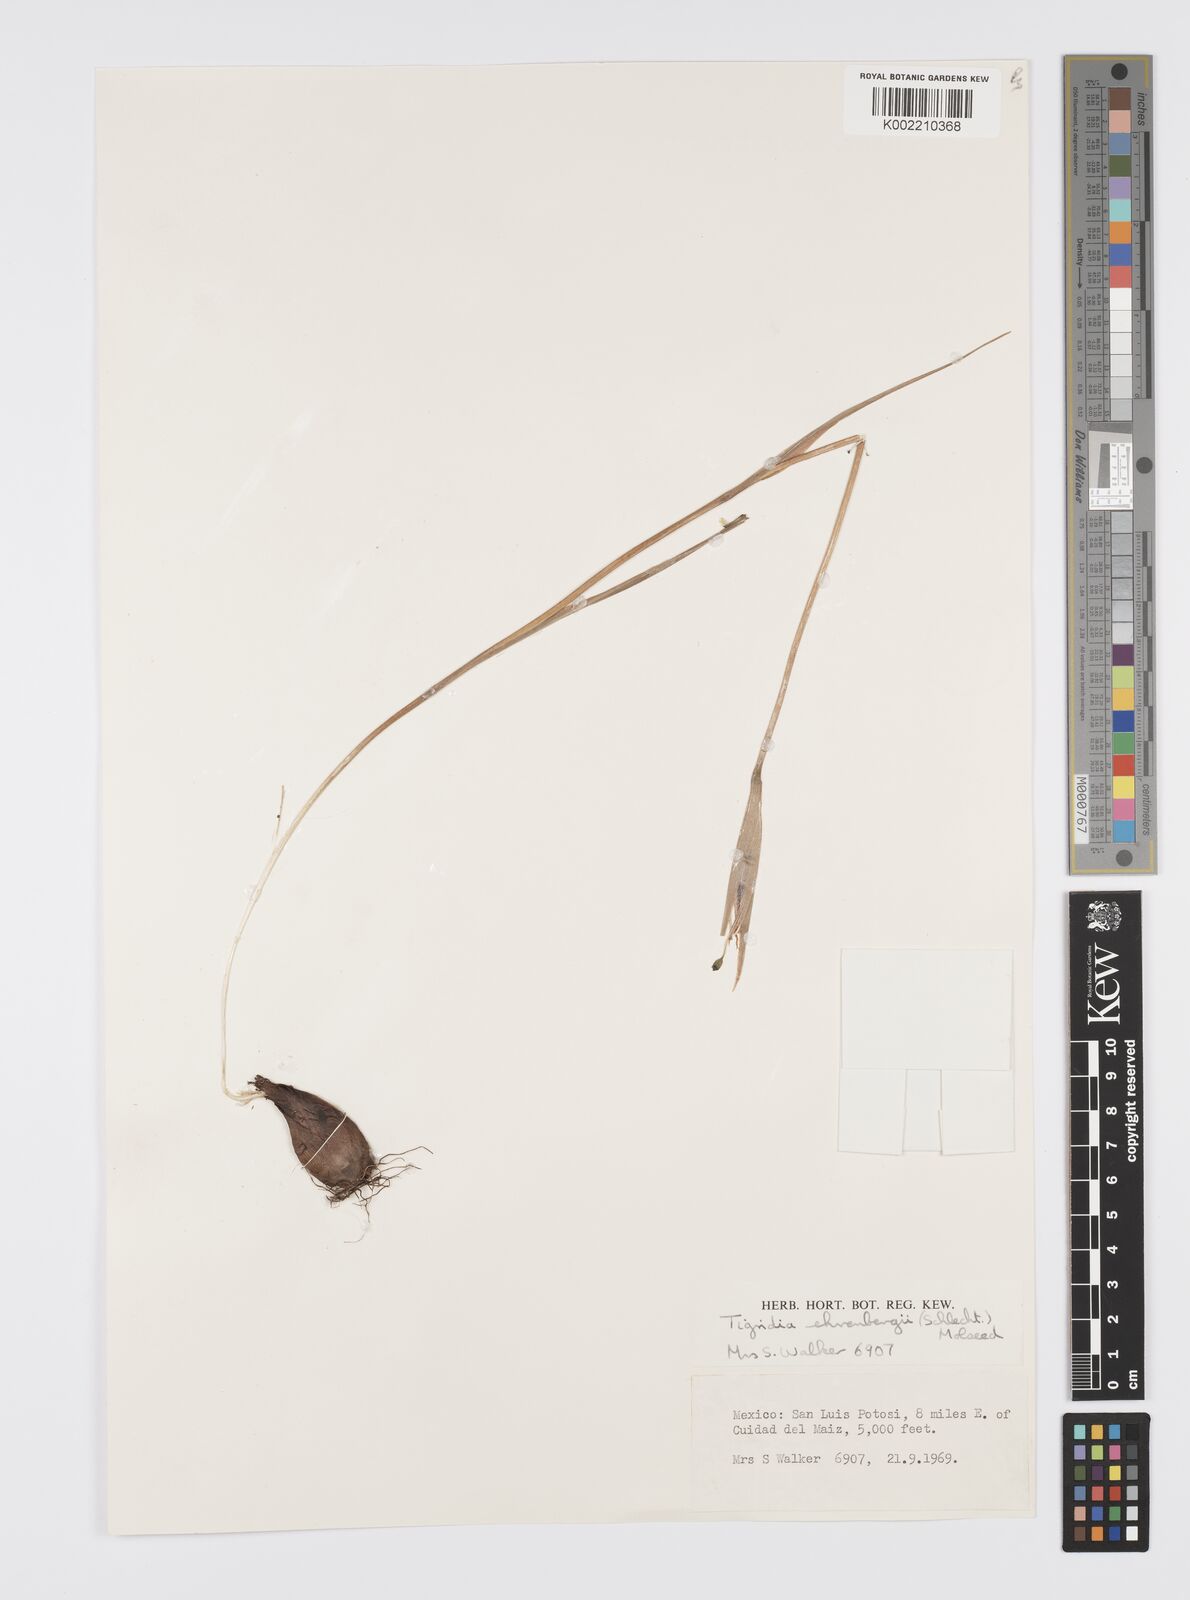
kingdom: Plantae
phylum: Tracheophyta
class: Liliopsida
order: Asparagales
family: Iridaceae
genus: Tigridia
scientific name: Tigridia ehrenbergii
